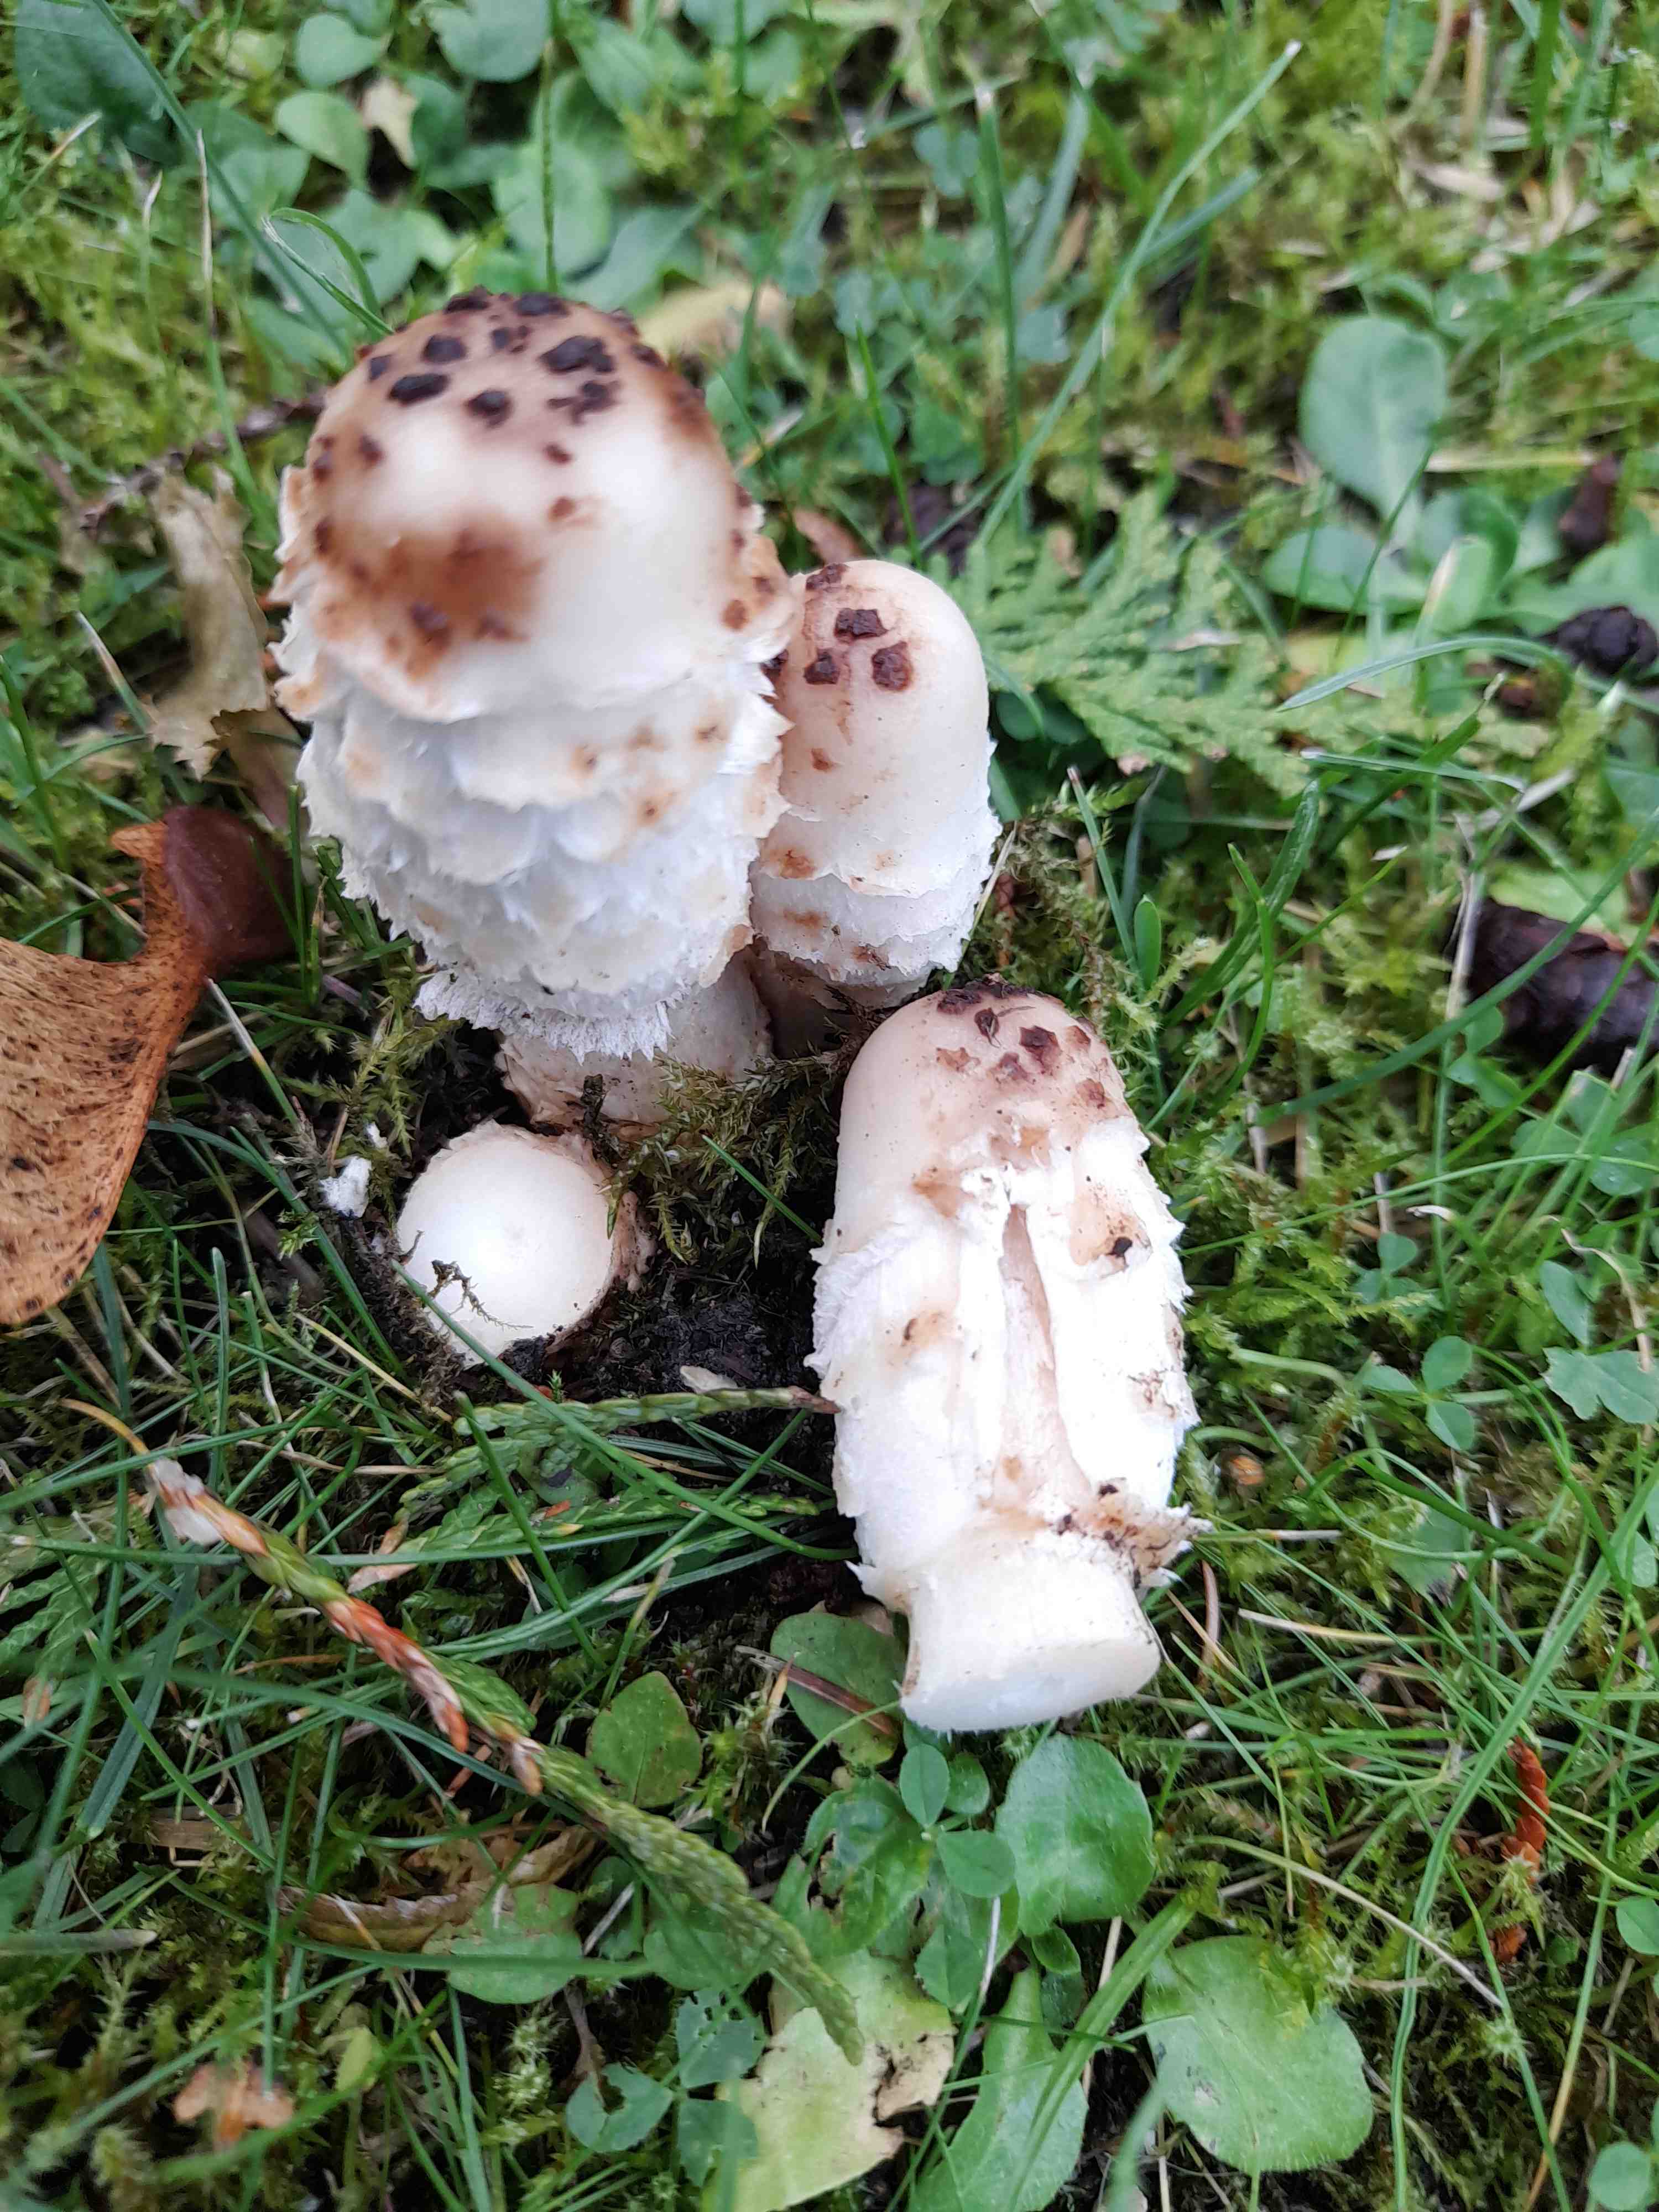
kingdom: Fungi
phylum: Basidiomycota
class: Agaricomycetes
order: Agaricales
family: Agaricaceae
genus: Coprinus
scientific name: Coprinus comatus
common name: stor parykhat
